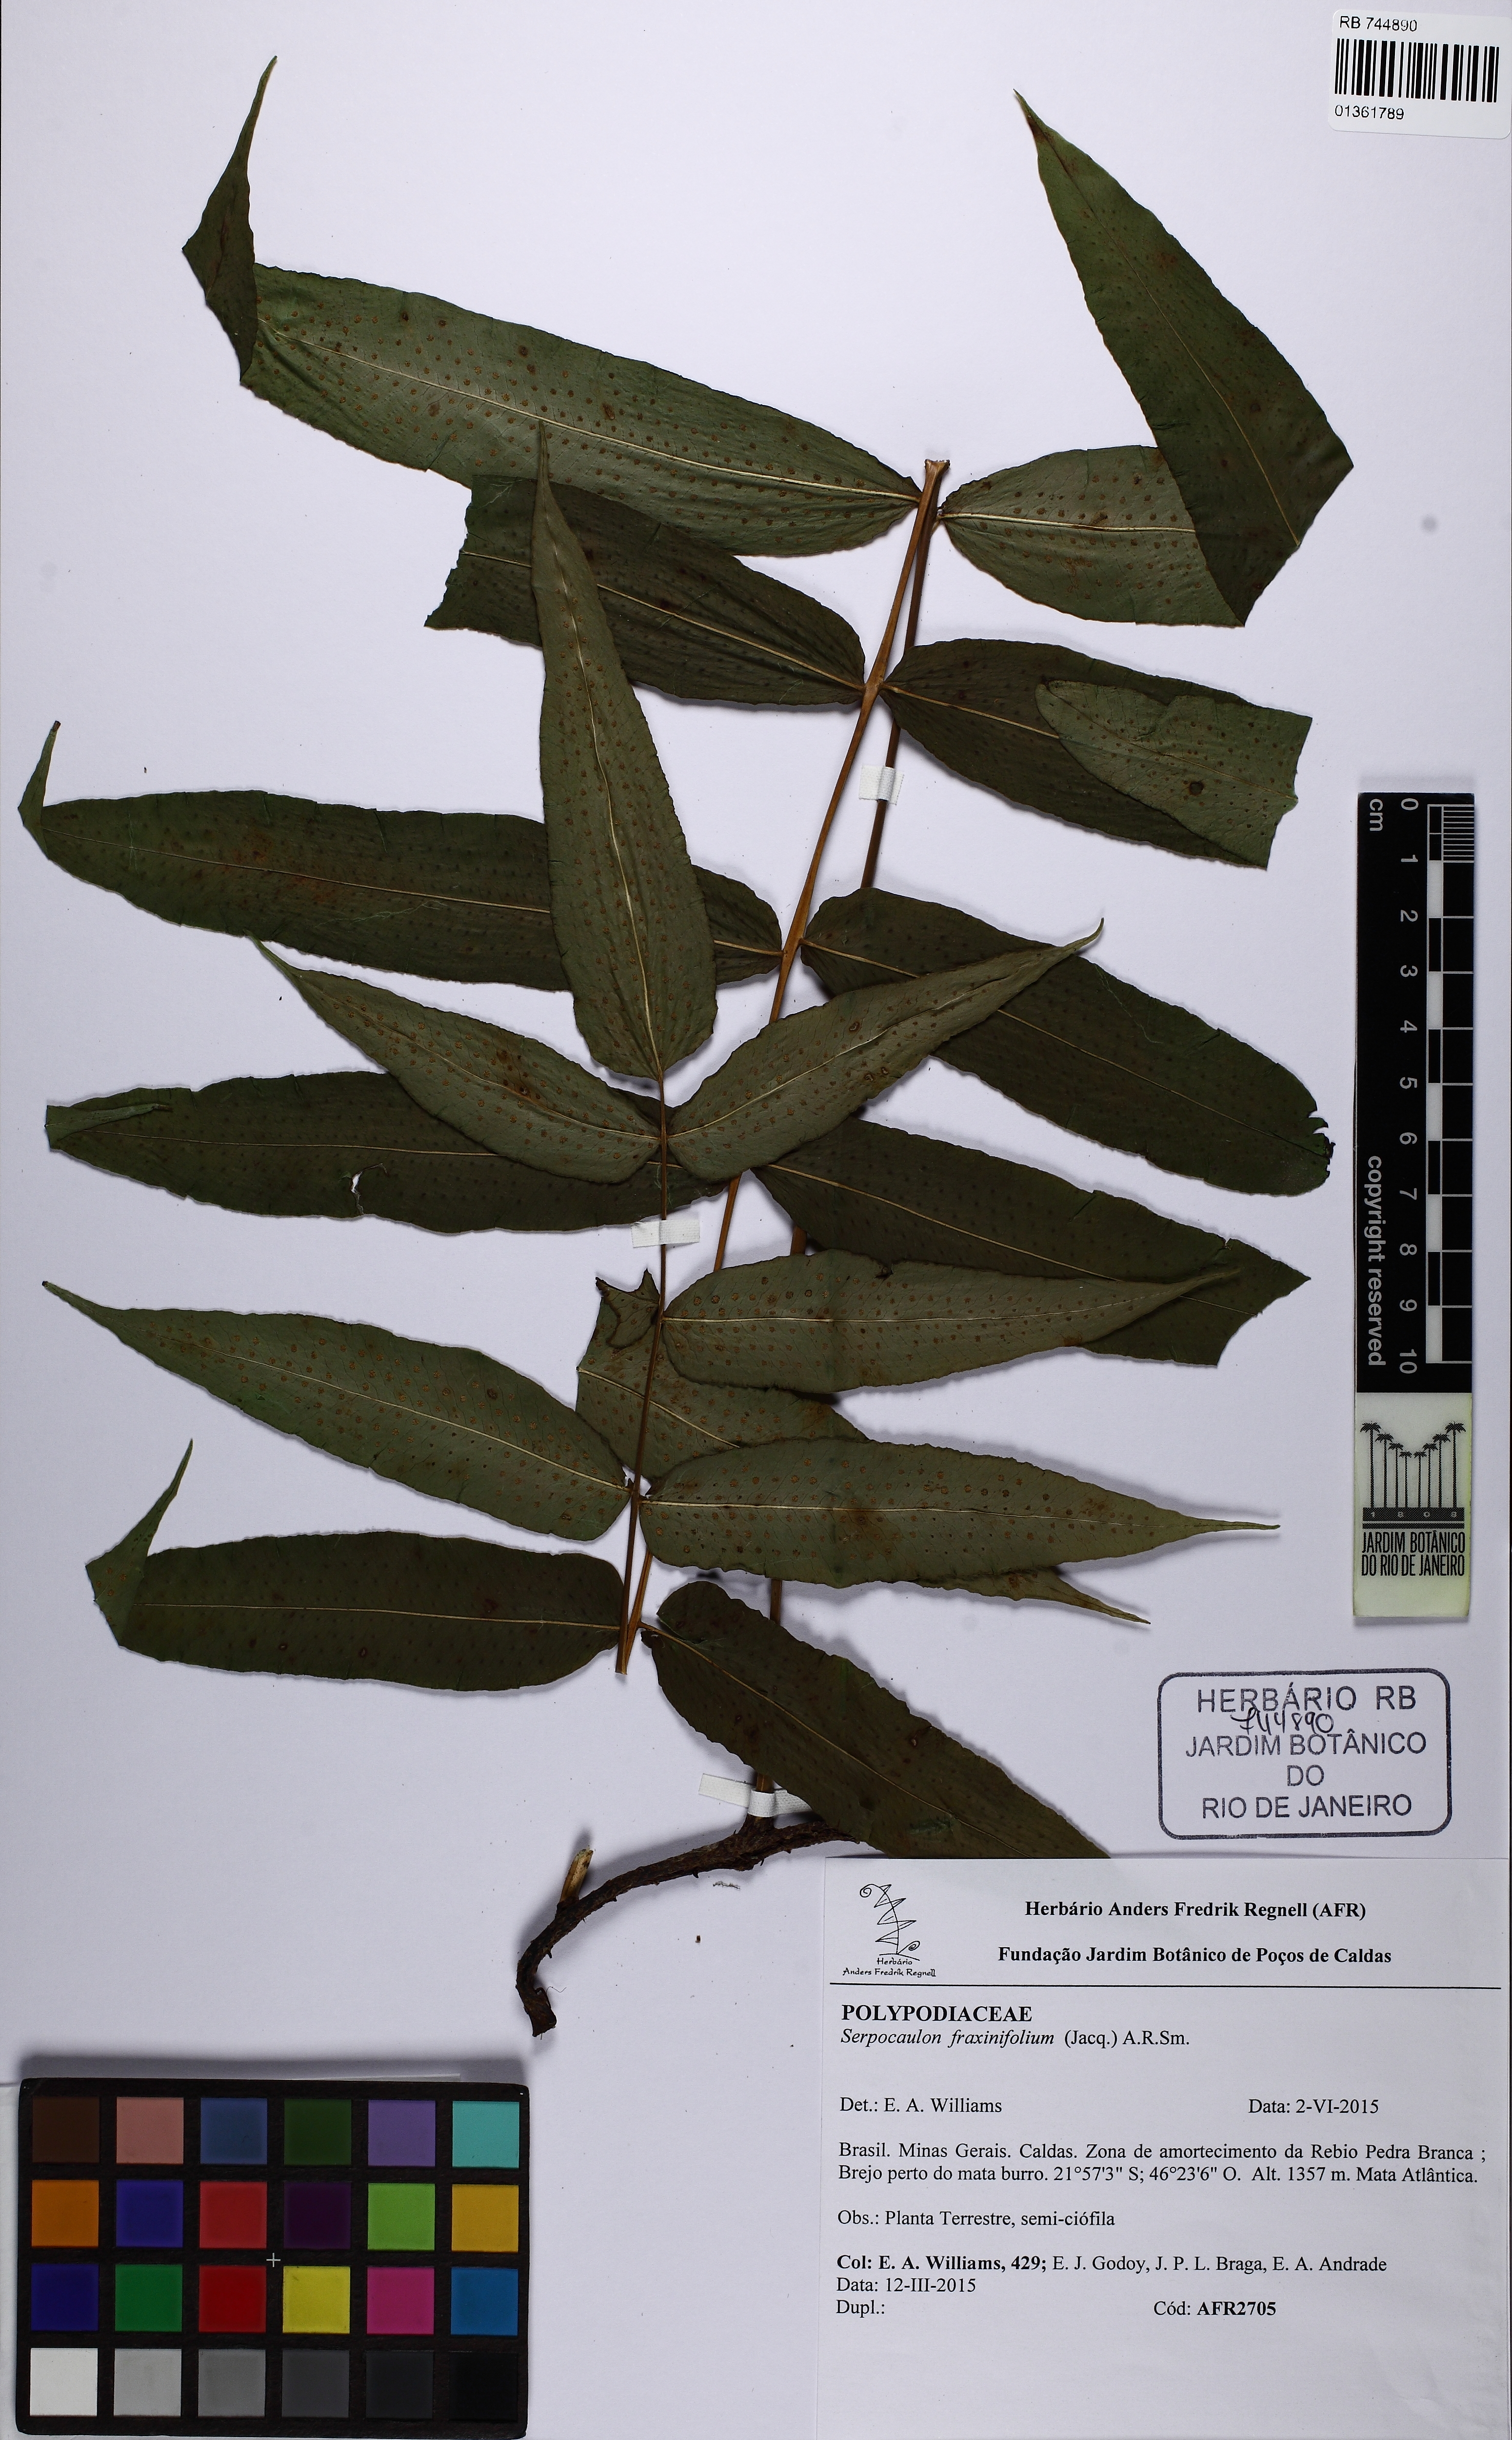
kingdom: Plantae
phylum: Tracheophyta
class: Polypodiopsida
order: Polypodiales
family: Polypodiaceae
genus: Serpocaulon
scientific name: Serpocaulon fraxinifolium
